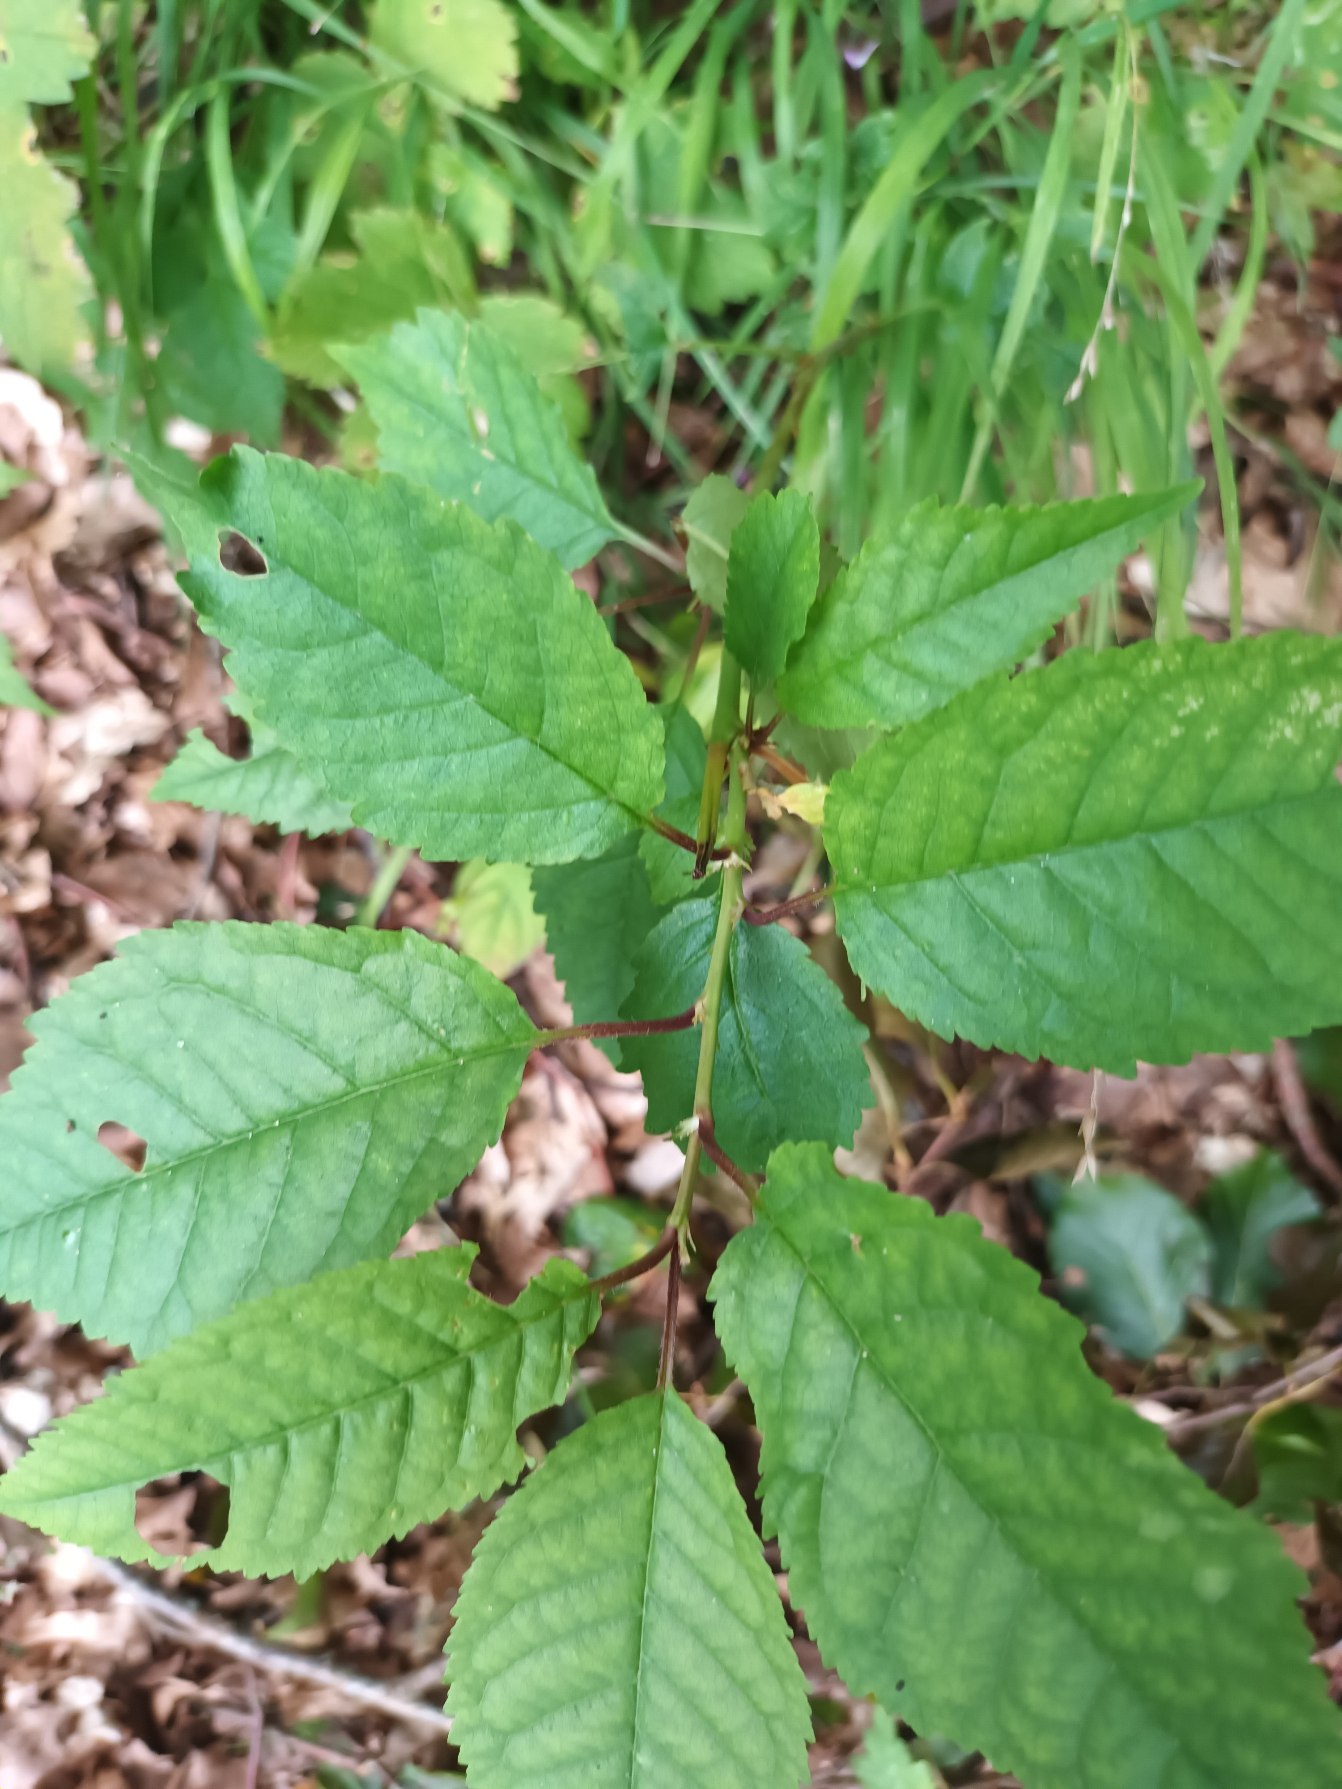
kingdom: Plantae
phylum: Tracheophyta
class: Magnoliopsida
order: Rosales
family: Rosaceae
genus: Prunus
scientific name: Prunus avium
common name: Fugle-kirsebær
